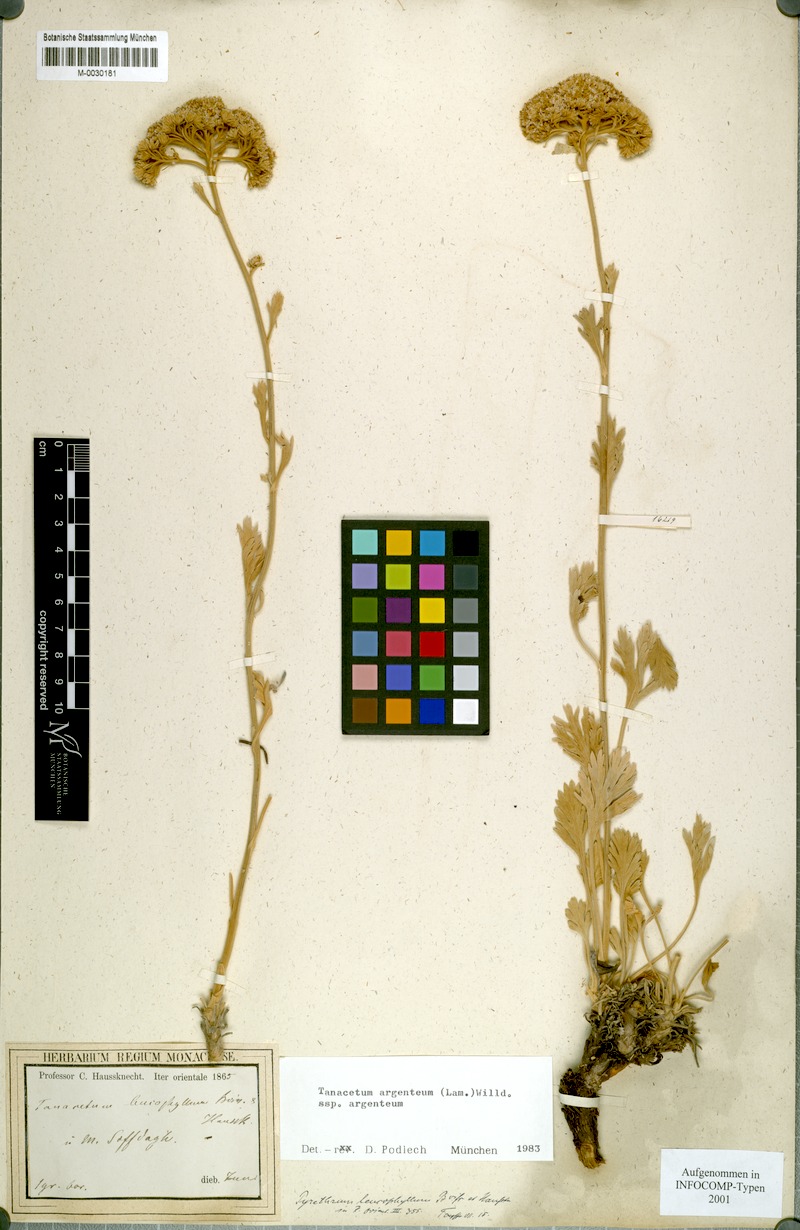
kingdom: Plantae
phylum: Tracheophyta
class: Magnoliopsida
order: Asterales
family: Asteraceae
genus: Tanacetum
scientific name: Tanacetum argenteum
